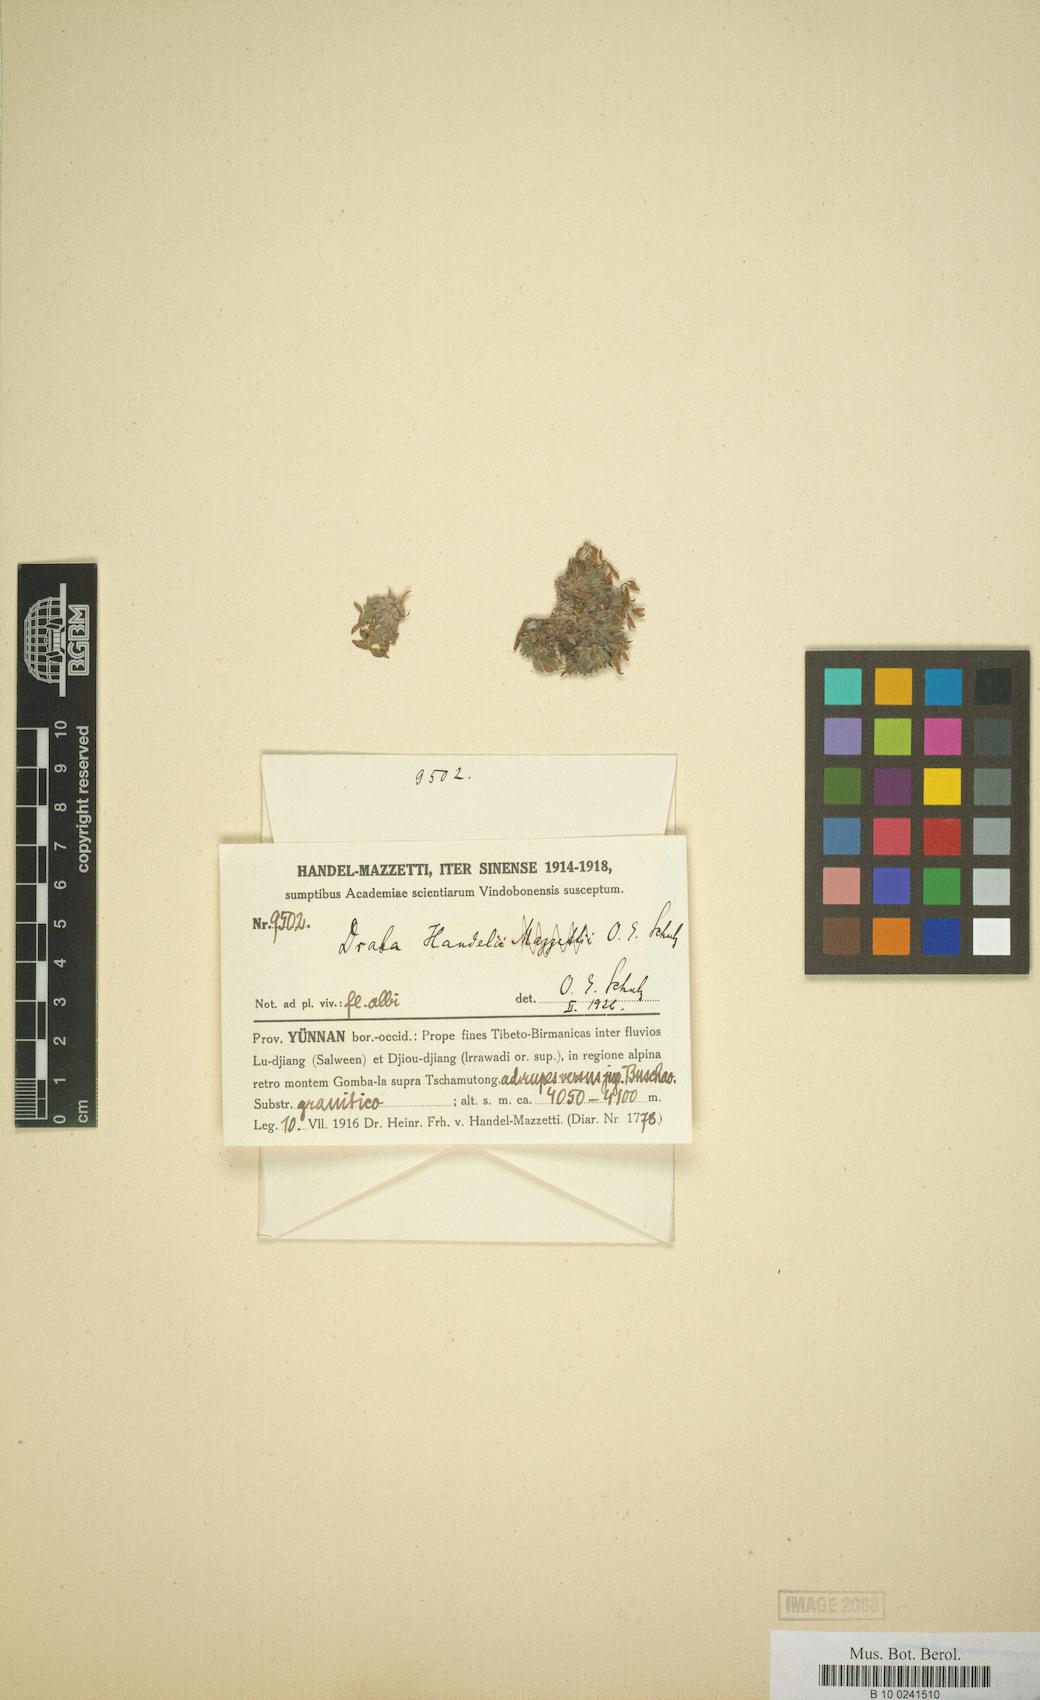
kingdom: Plantae
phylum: Tracheophyta
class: Magnoliopsida
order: Brassicales
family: Brassicaceae
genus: Draba
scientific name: Draba handelii
